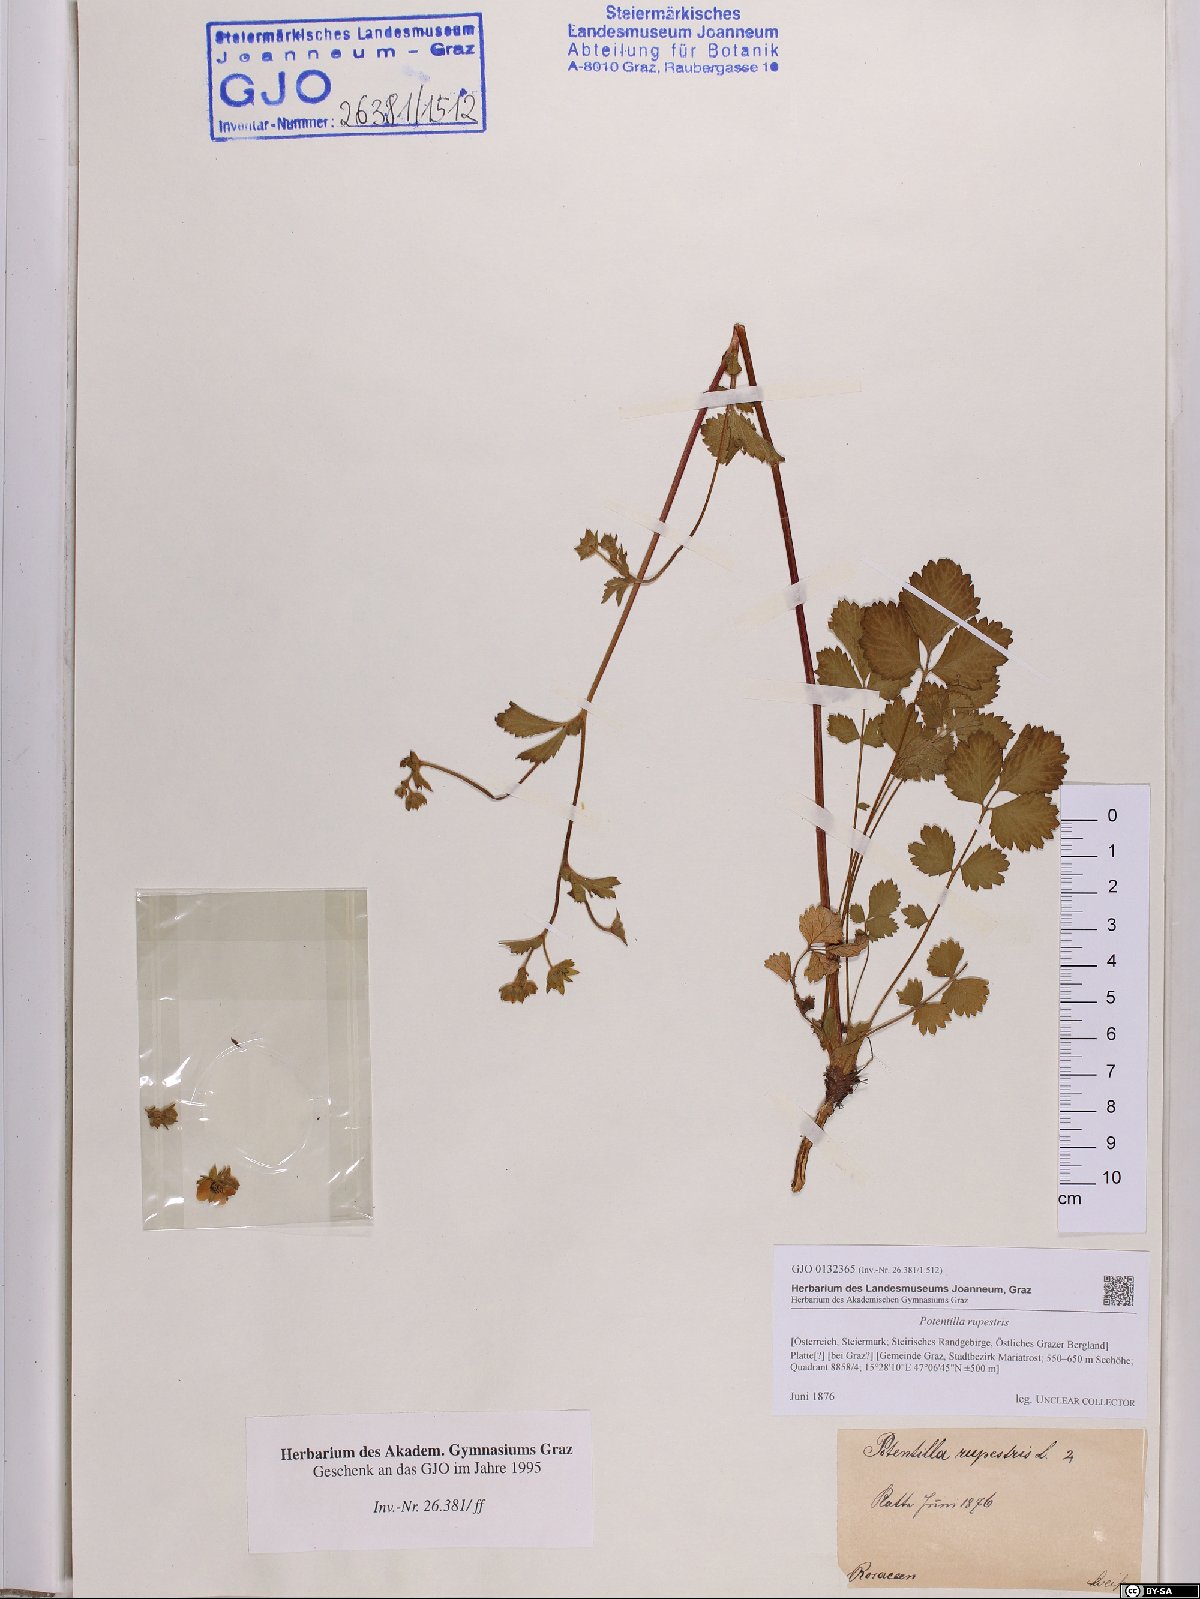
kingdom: Plantae
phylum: Tracheophyta
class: Magnoliopsida
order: Rosales
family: Rosaceae
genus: Drymocallis
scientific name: Drymocallis rupestris
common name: Rock cinquefoil
